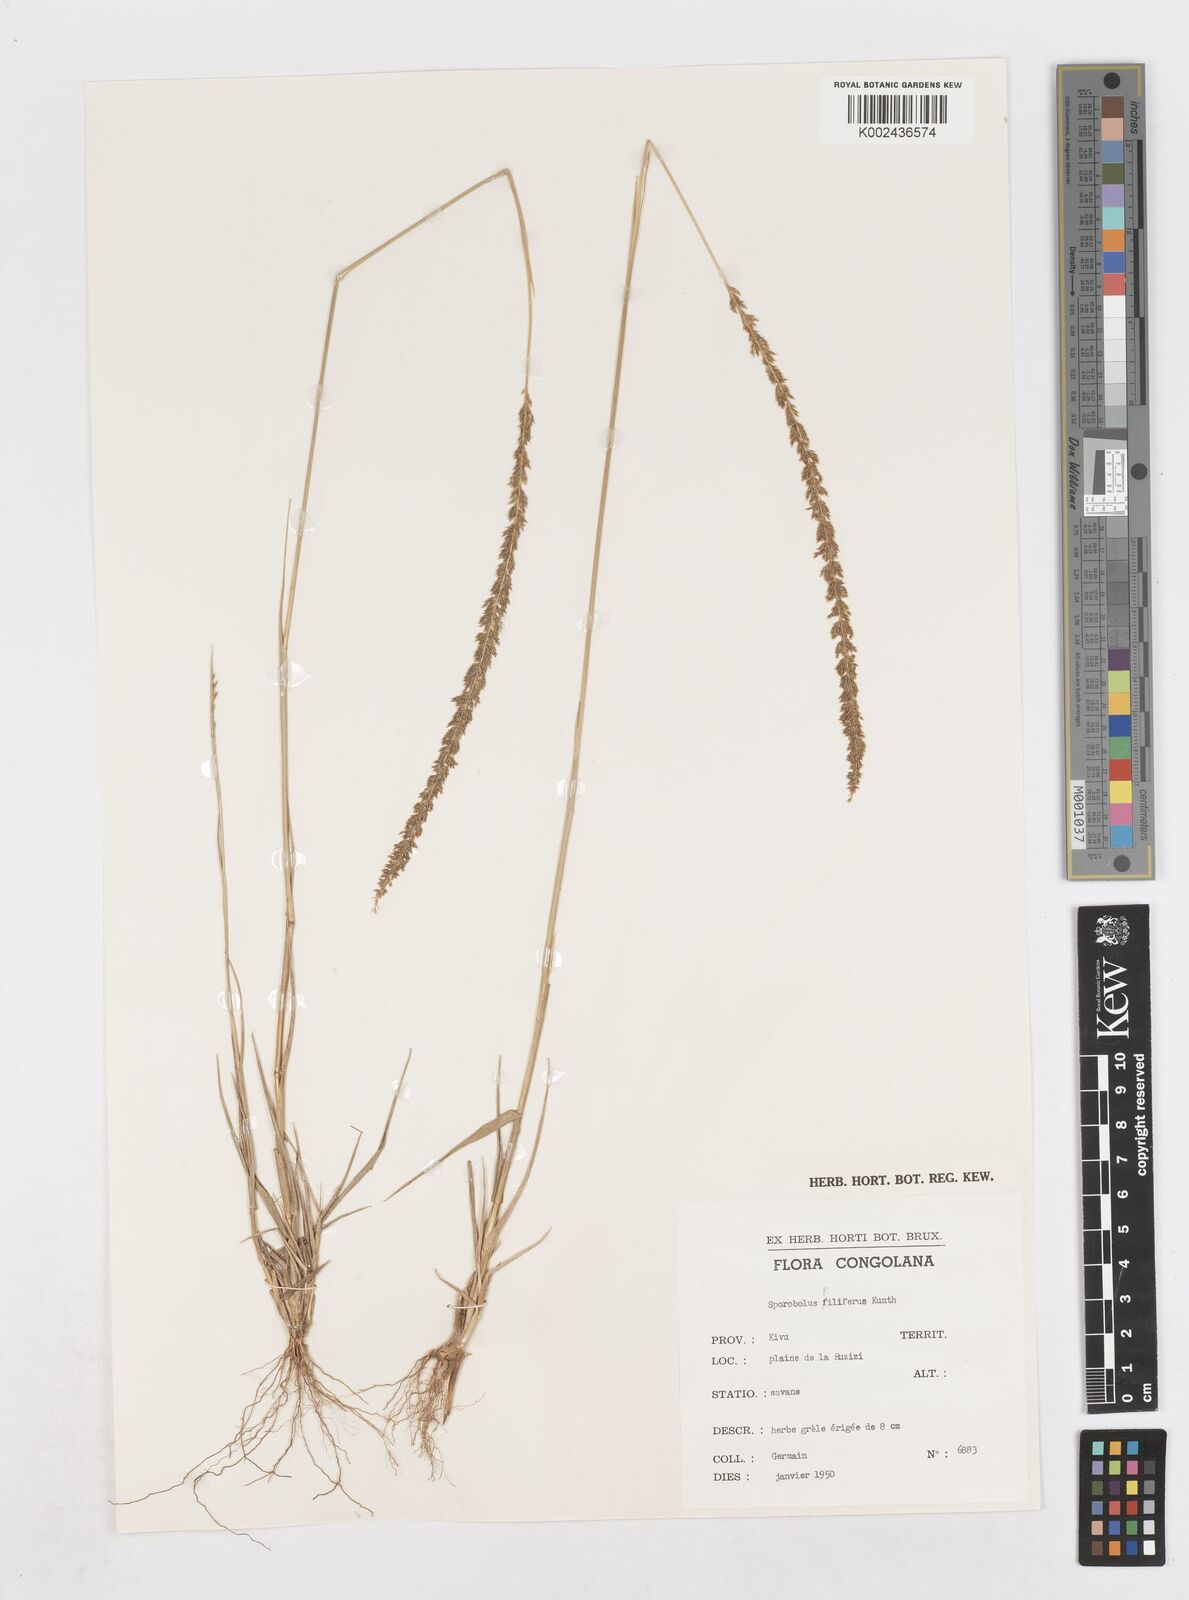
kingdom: Plantae
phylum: Tracheophyta
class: Liliopsida
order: Poales
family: Poaceae
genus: Sporobolus
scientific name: Sporobolus pilifer
